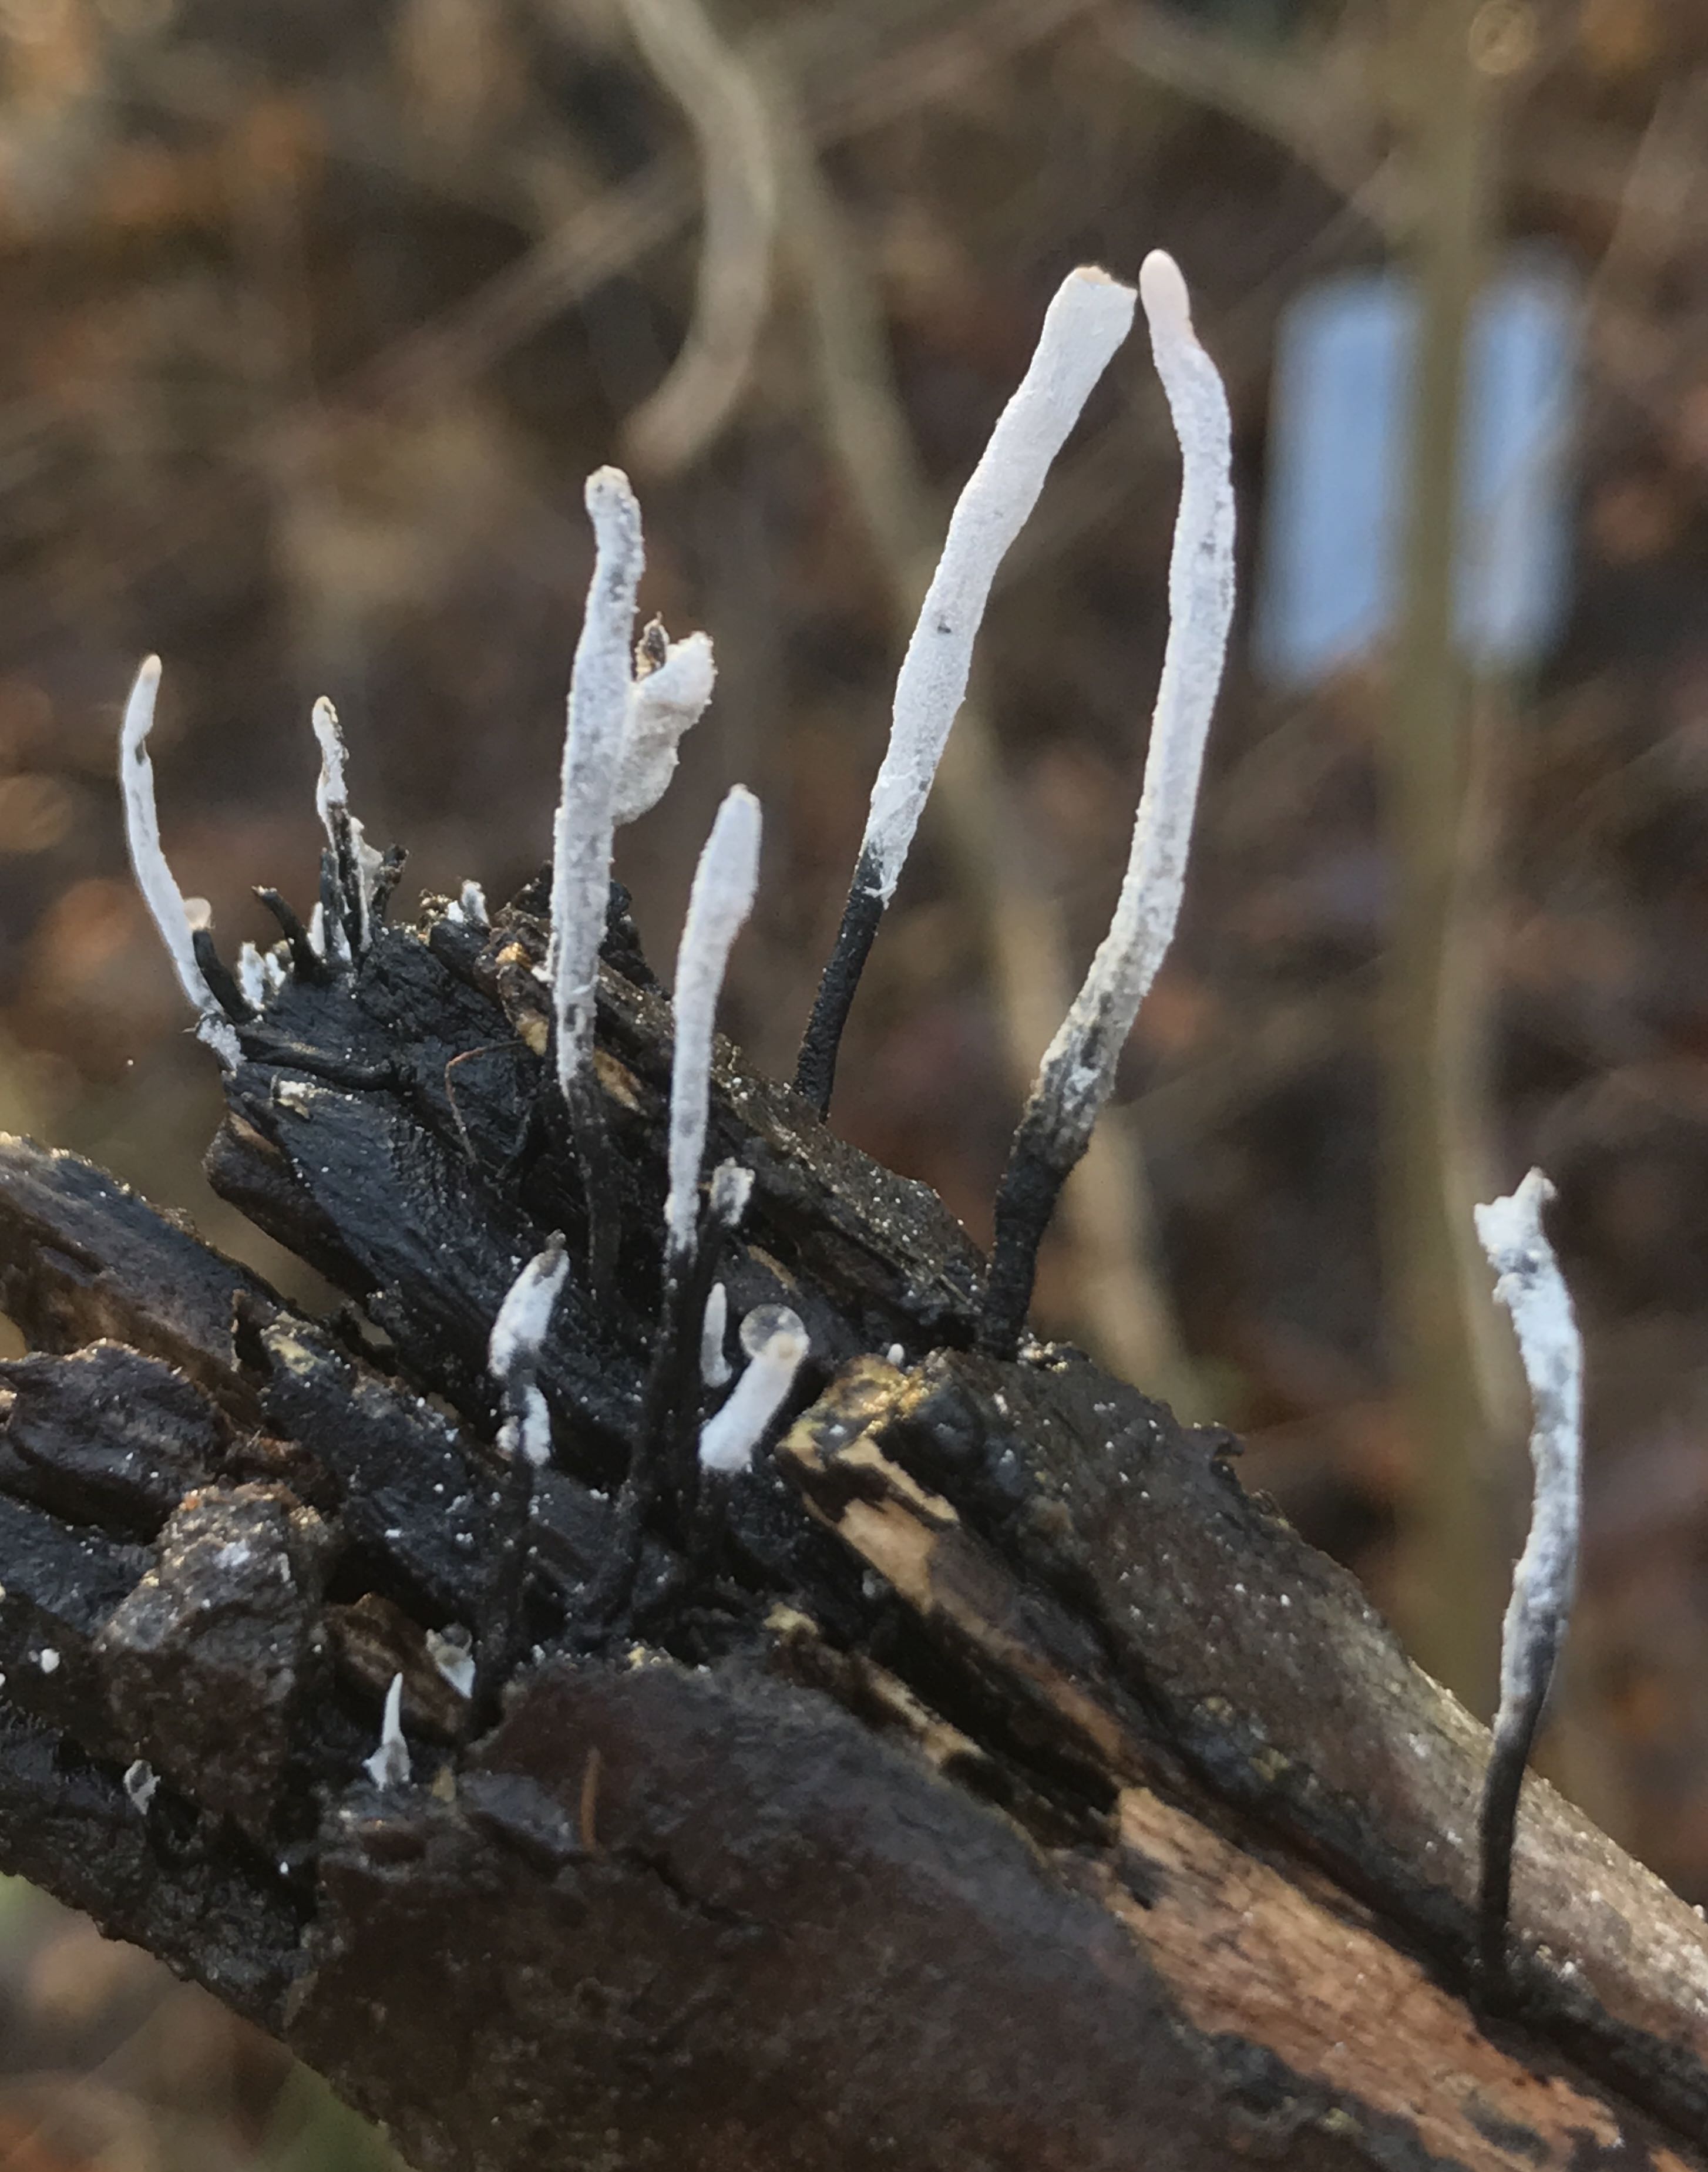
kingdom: Fungi
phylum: Ascomycota
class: Sordariomycetes
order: Xylariales
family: Xylariaceae
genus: Xylaria
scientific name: Xylaria hypoxylon
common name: grenet stødsvamp
